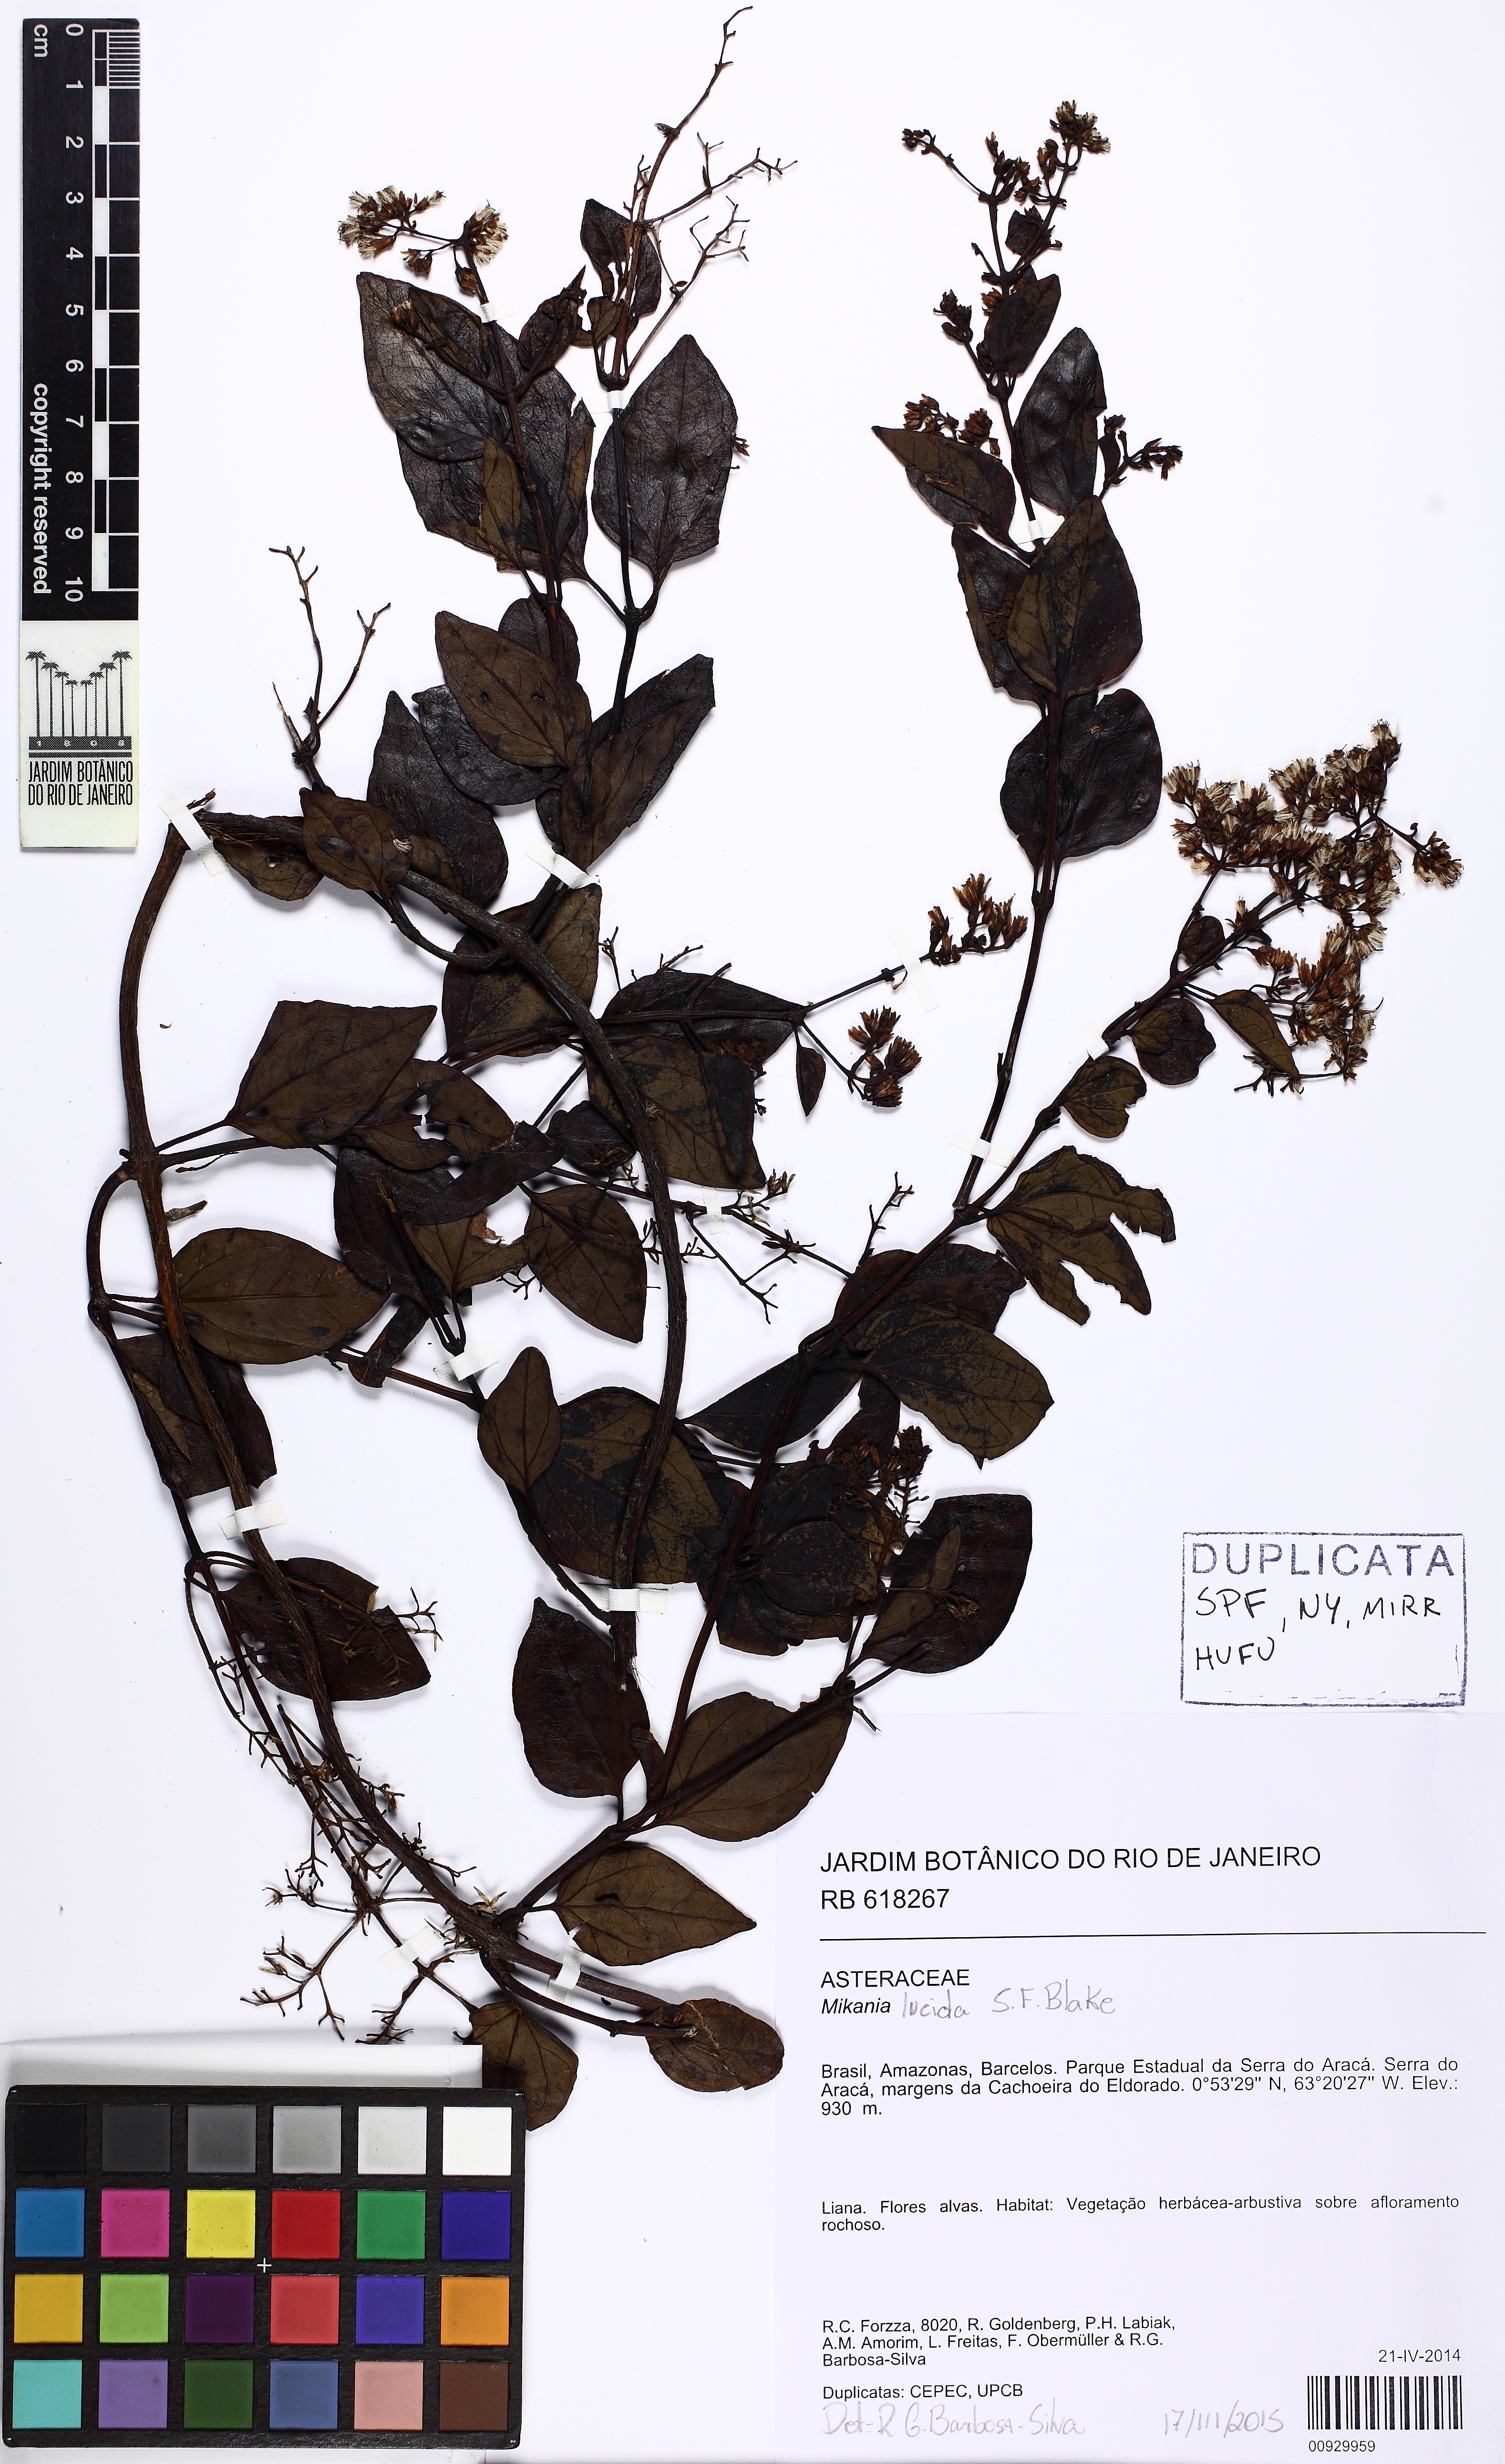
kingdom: Plantae
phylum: Tracheophyta
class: Magnoliopsida
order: Asterales
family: Asteraceae
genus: Mikania
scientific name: Mikania lucida
